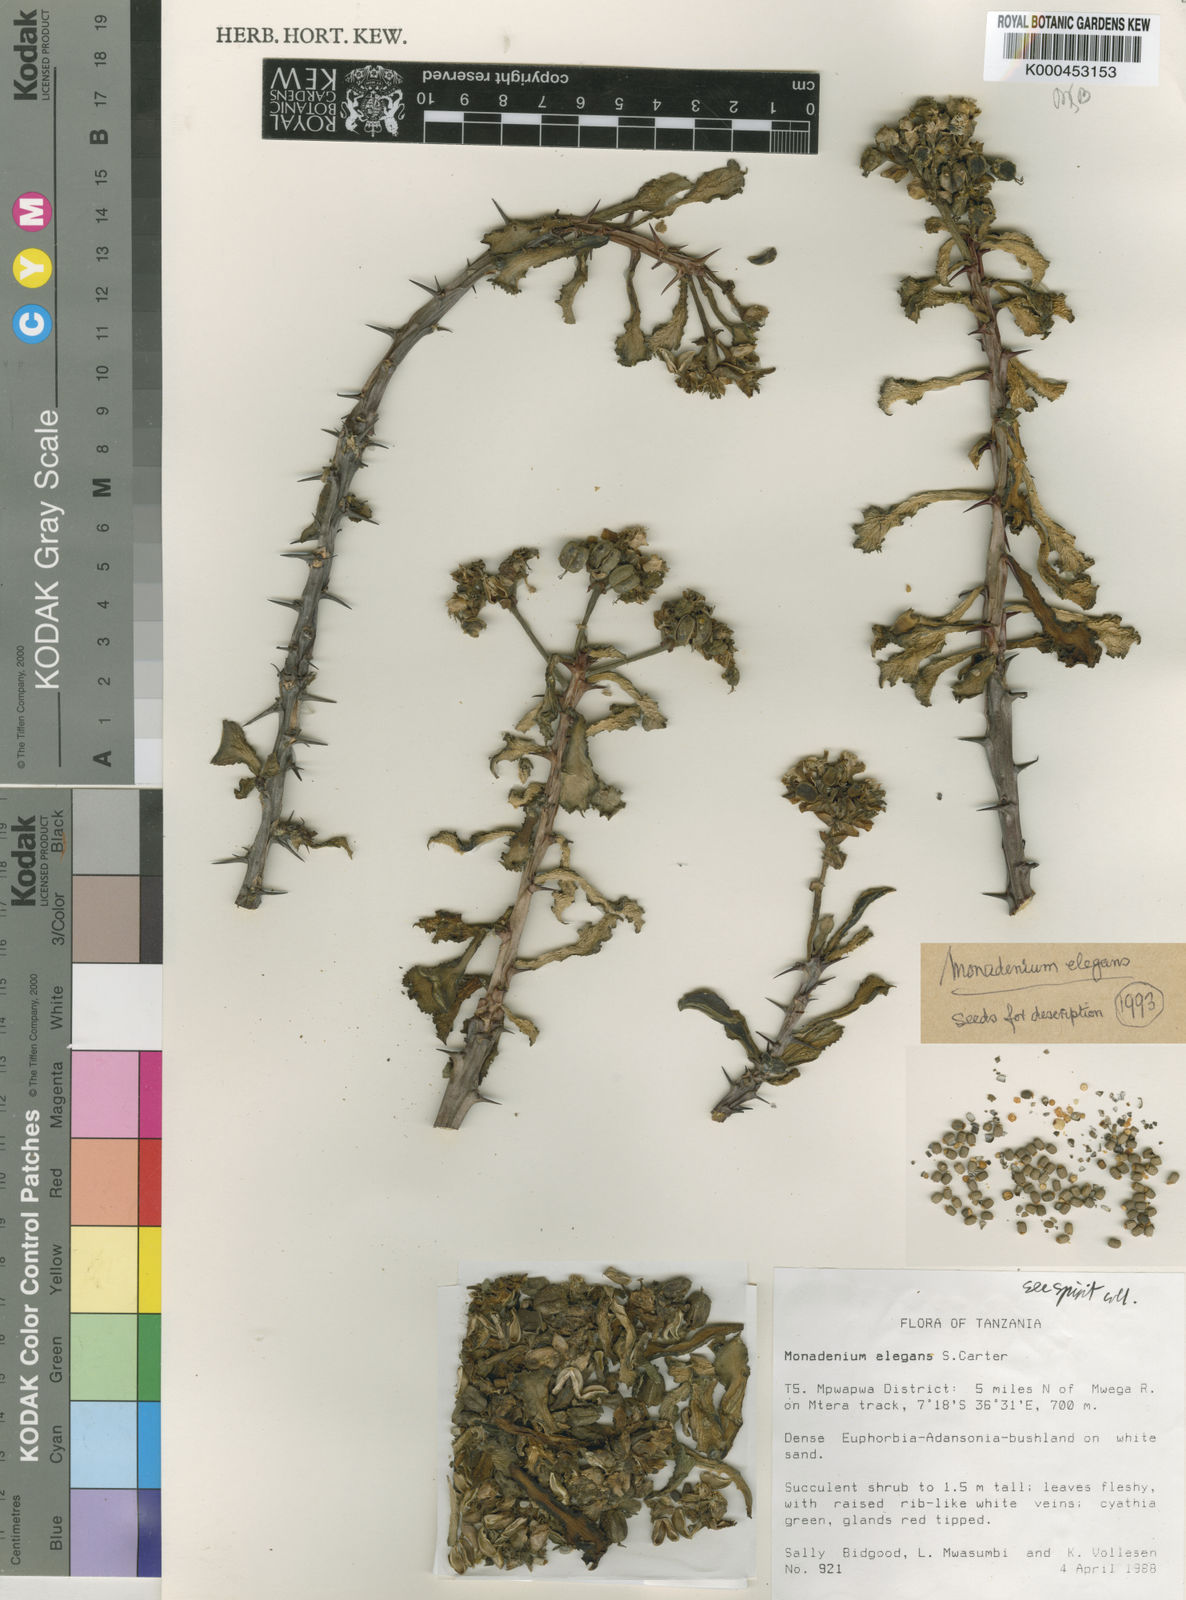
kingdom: Plantae
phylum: Tracheophyta
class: Magnoliopsida
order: Malpighiales
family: Euphorbiaceae
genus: Euphorbia
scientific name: Euphorbia biselegans
